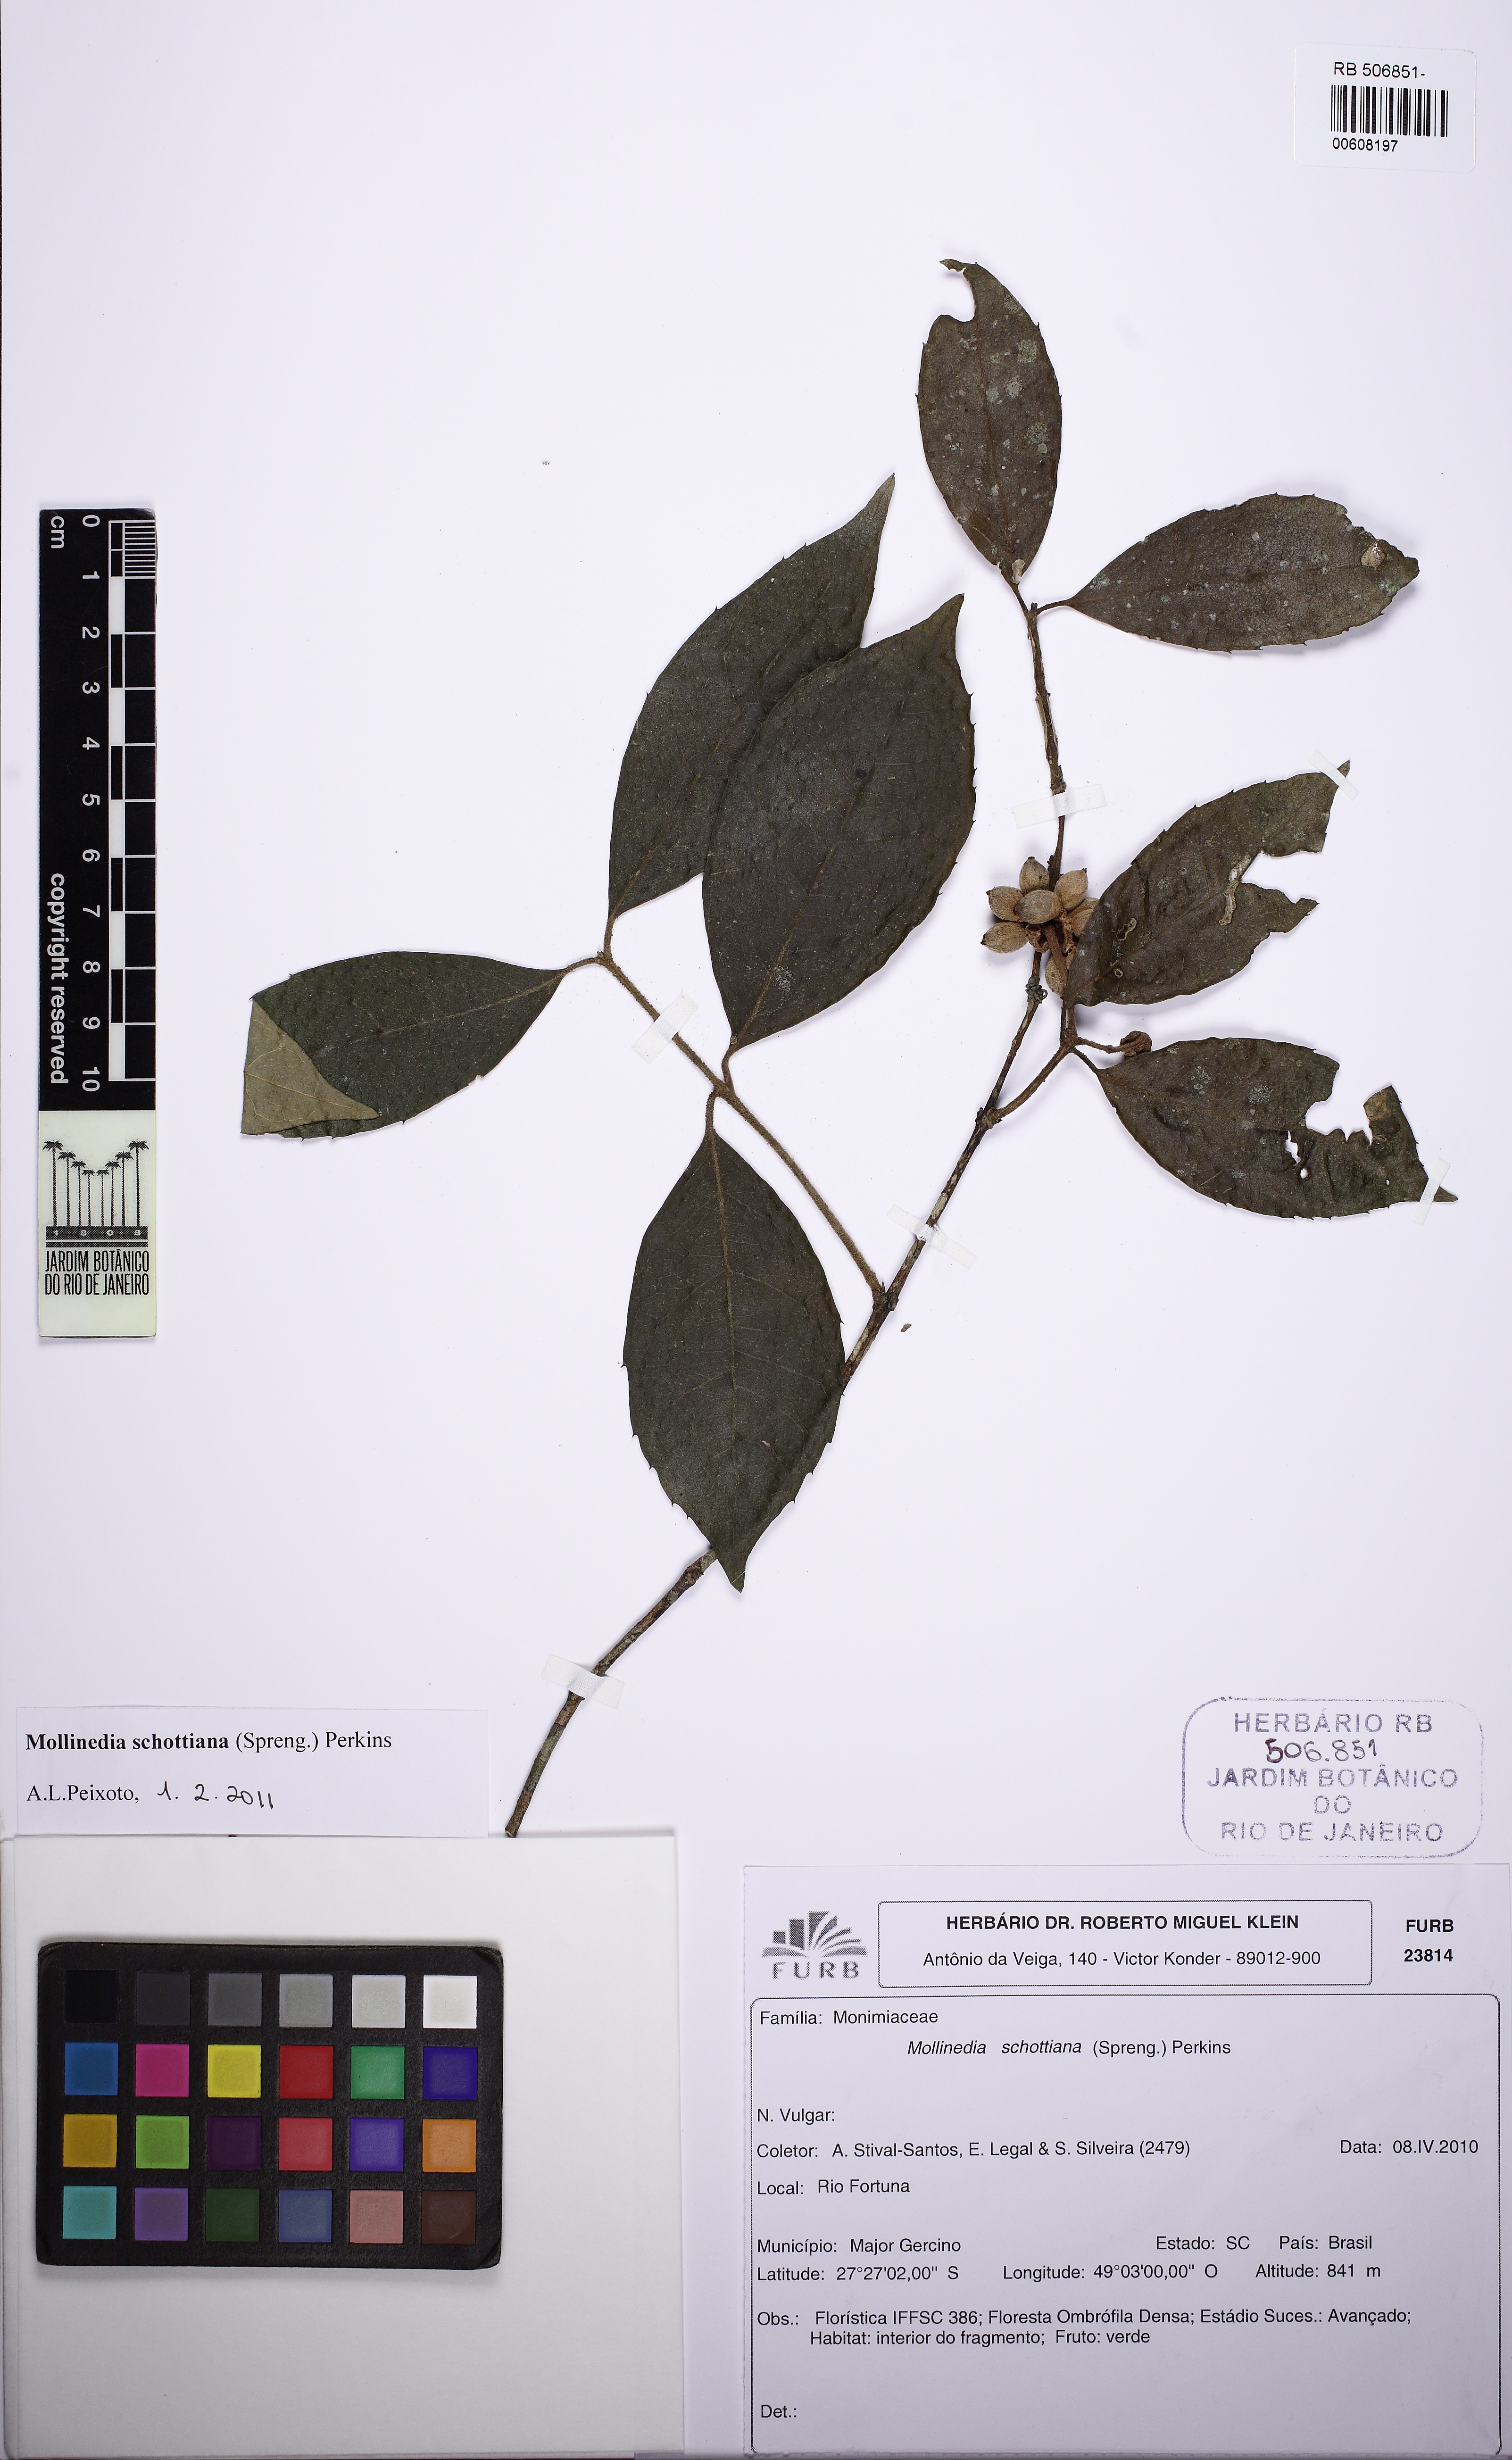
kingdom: Plantae
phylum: Tracheophyta
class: Magnoliopsida
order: Laurales
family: Monimiaceae
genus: Mollinedia
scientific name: Mollinedia umbellata
